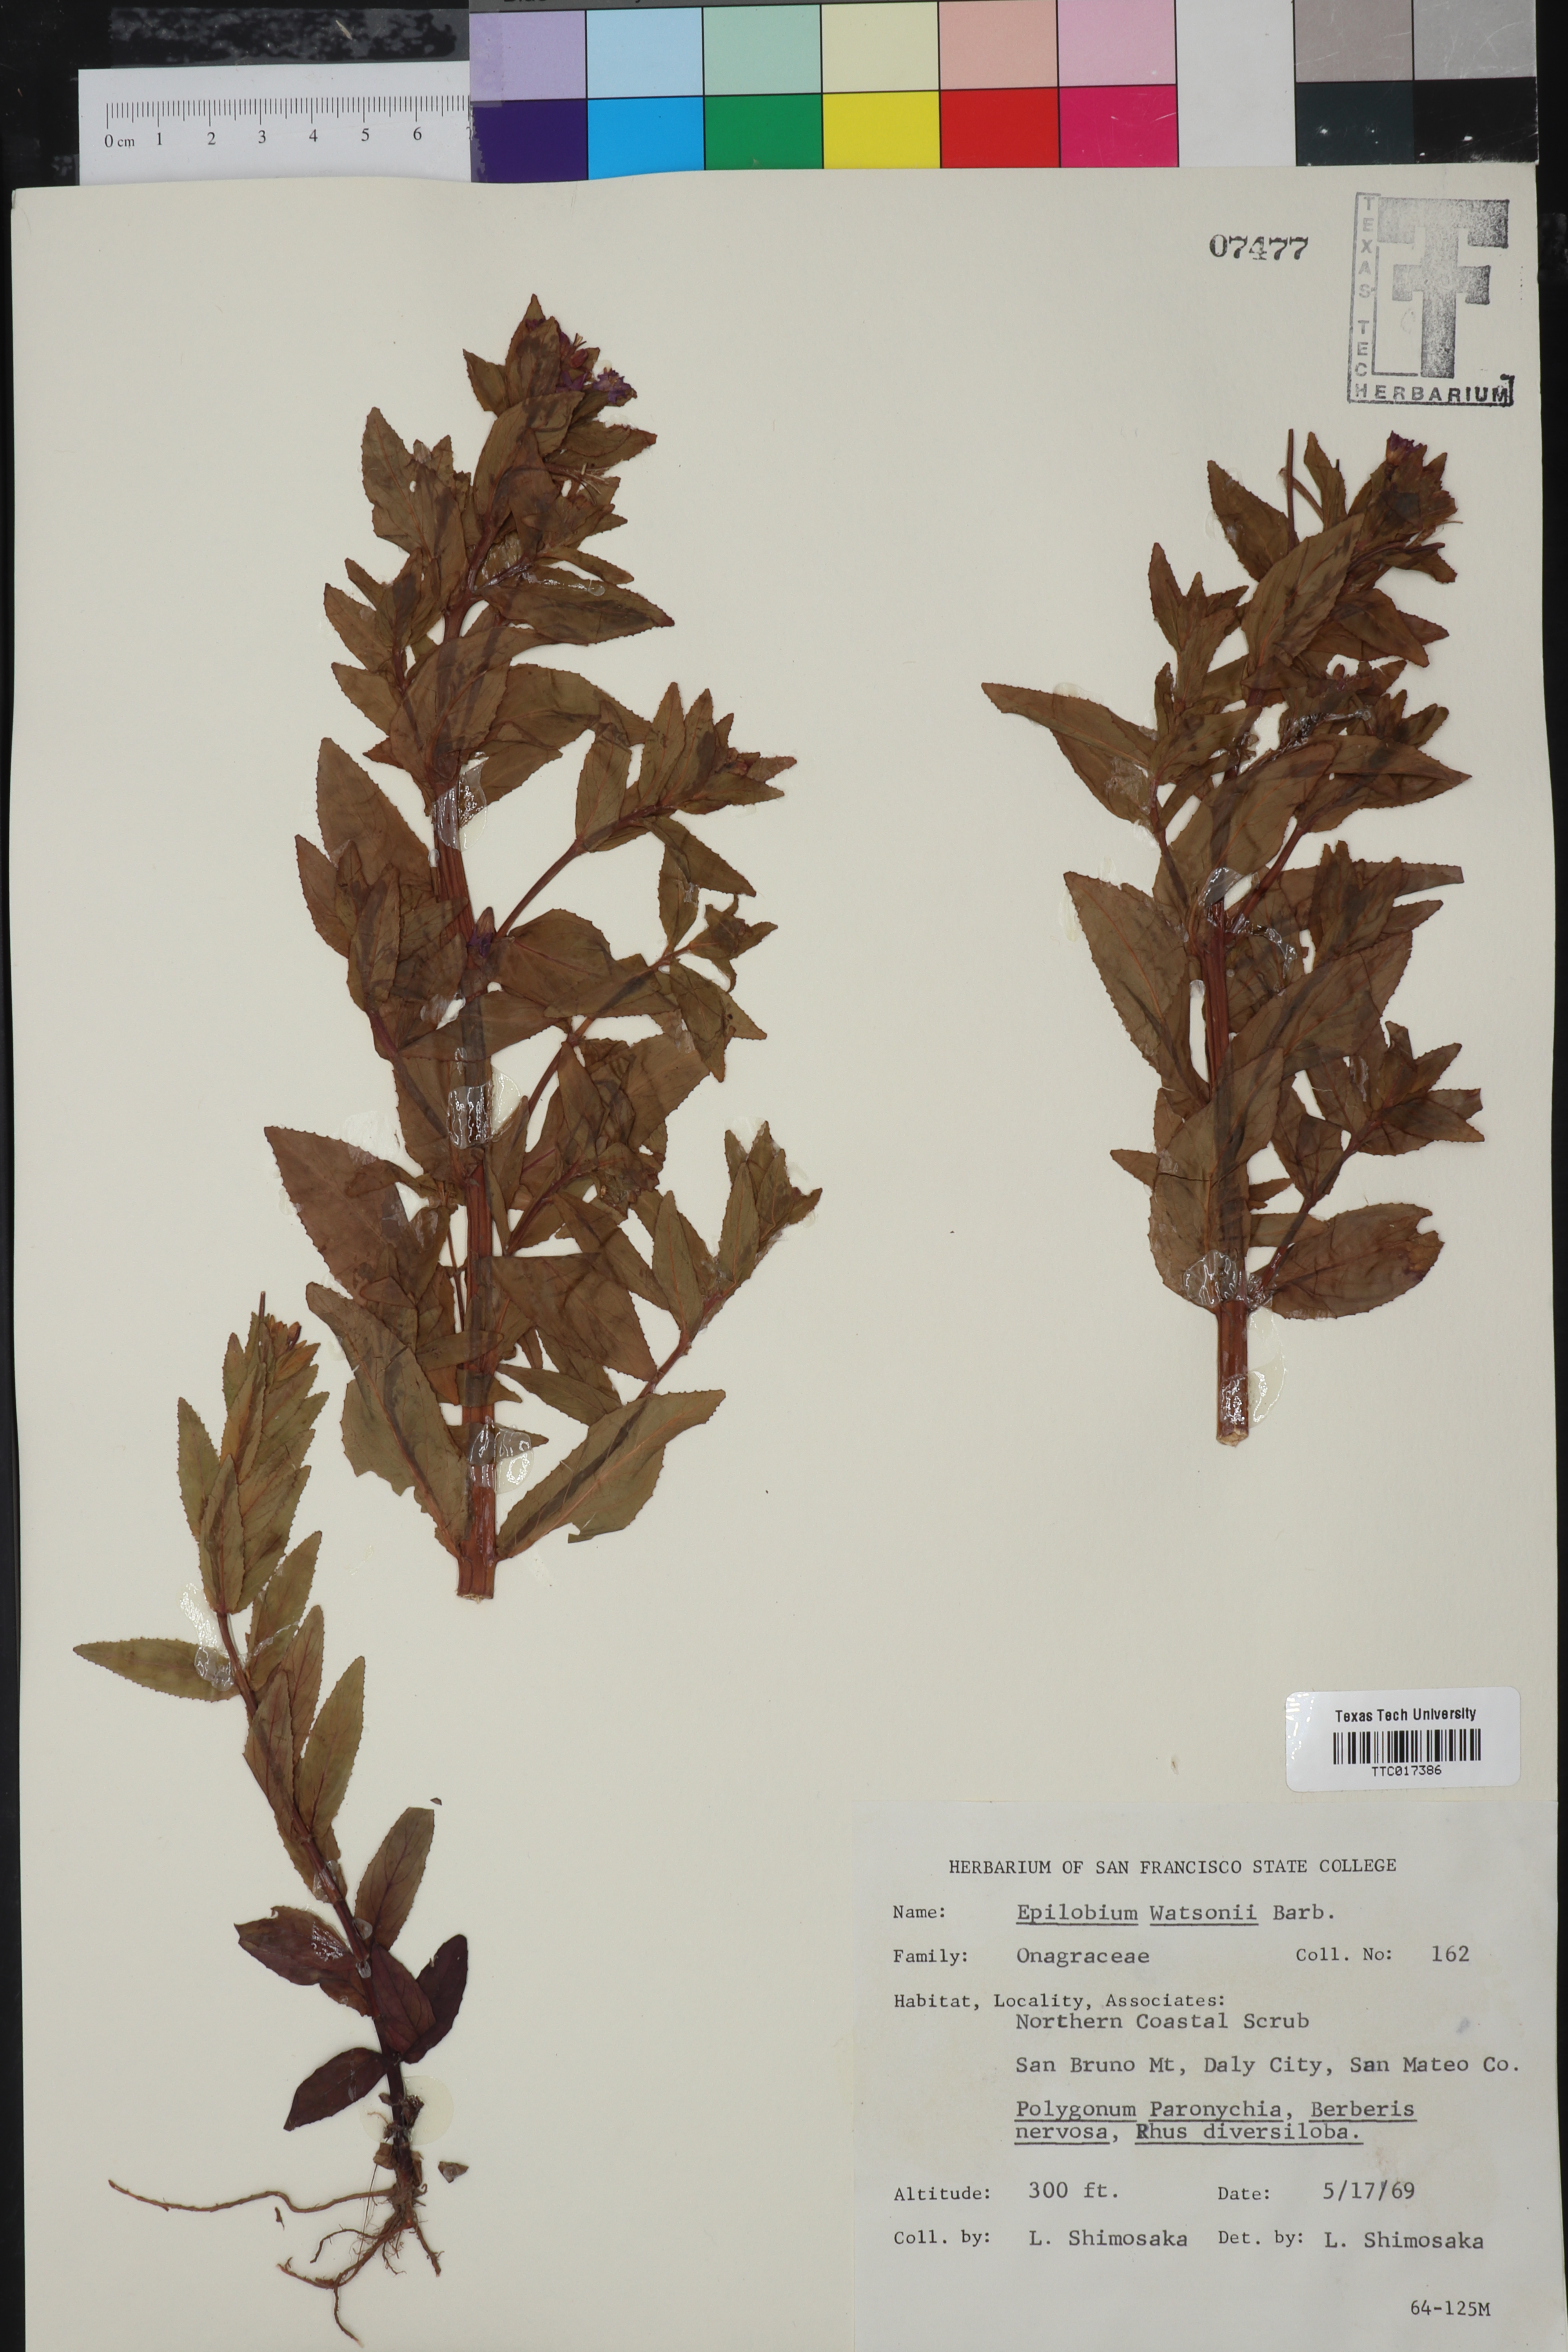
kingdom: Plantae
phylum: Tracheophyta
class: Magnoliopsida
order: Myrtales
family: Onagraceae
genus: Epilobium
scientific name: Epilobium ciliatum
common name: American willowherb
